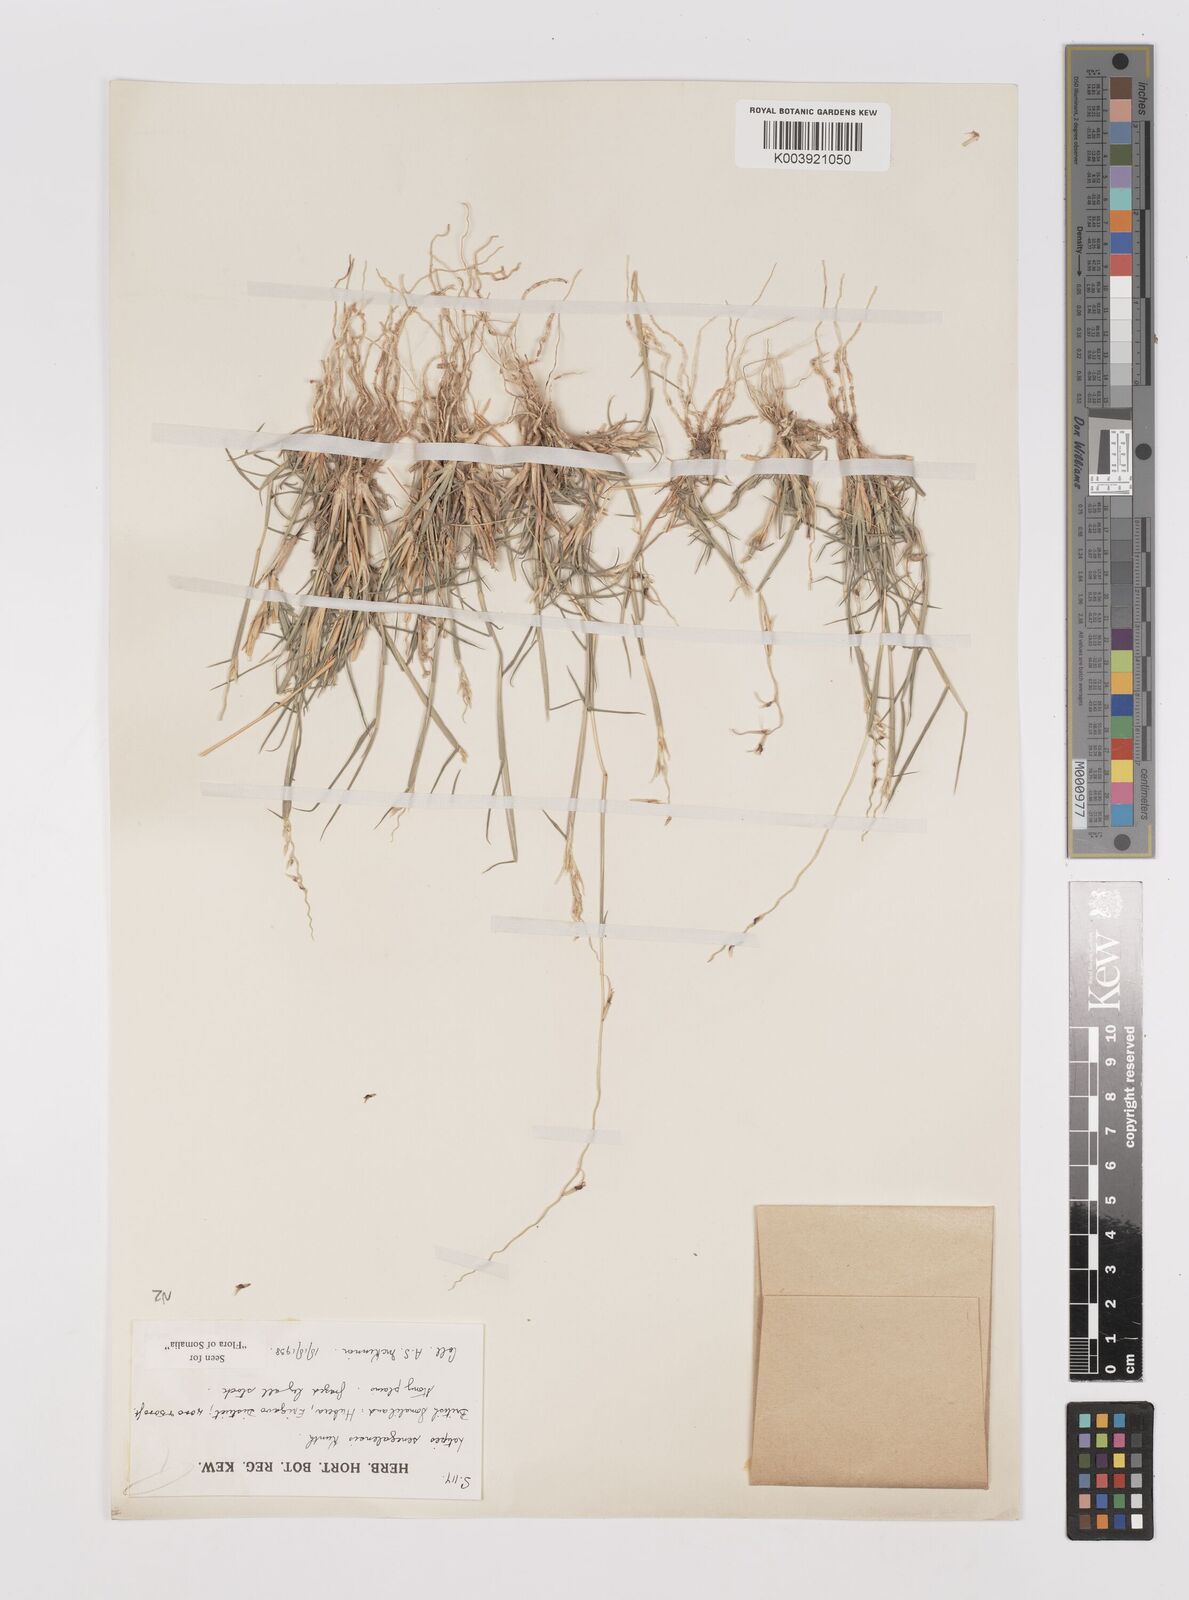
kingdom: Plantae
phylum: Tracheophyta
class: Liliopsida
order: Poales
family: Poaceae
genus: Leptothrium
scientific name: Leptothrium senegalense
